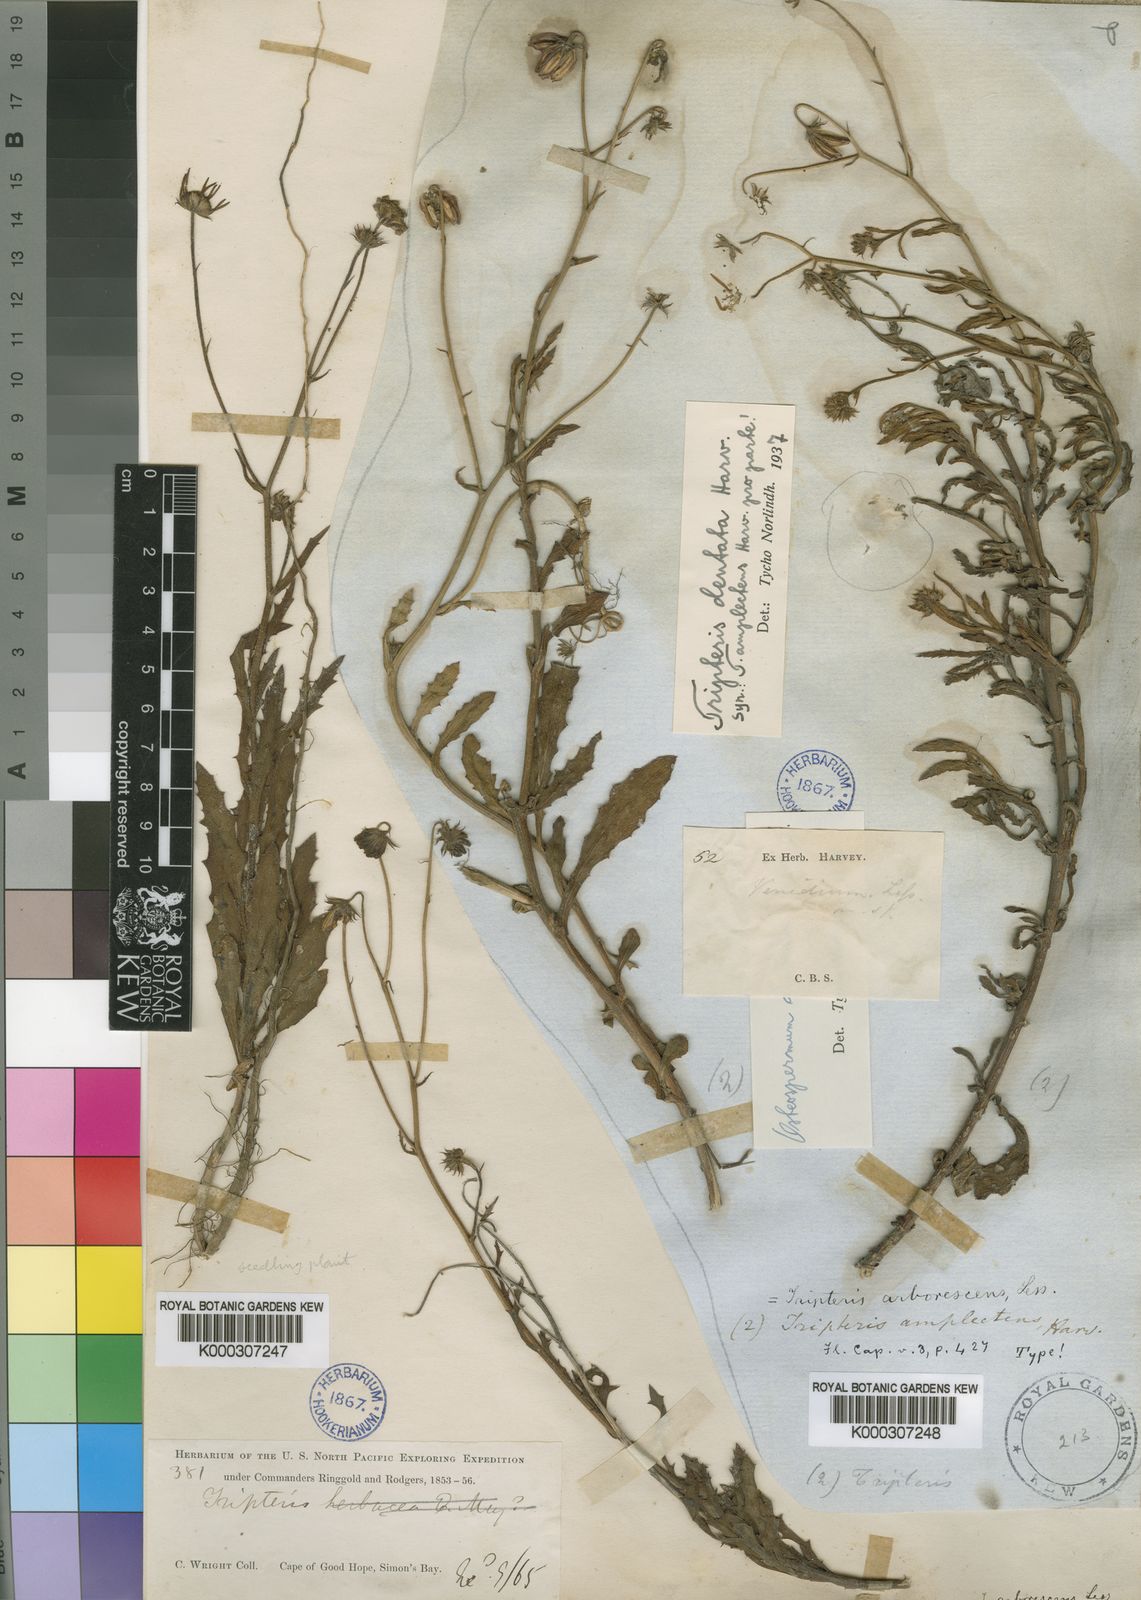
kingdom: Plantae
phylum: Tracheophyta
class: Magnoliopsida
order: Asterales
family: Asteraceae
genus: Osteospermum
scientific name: Osteospermum dentatum
